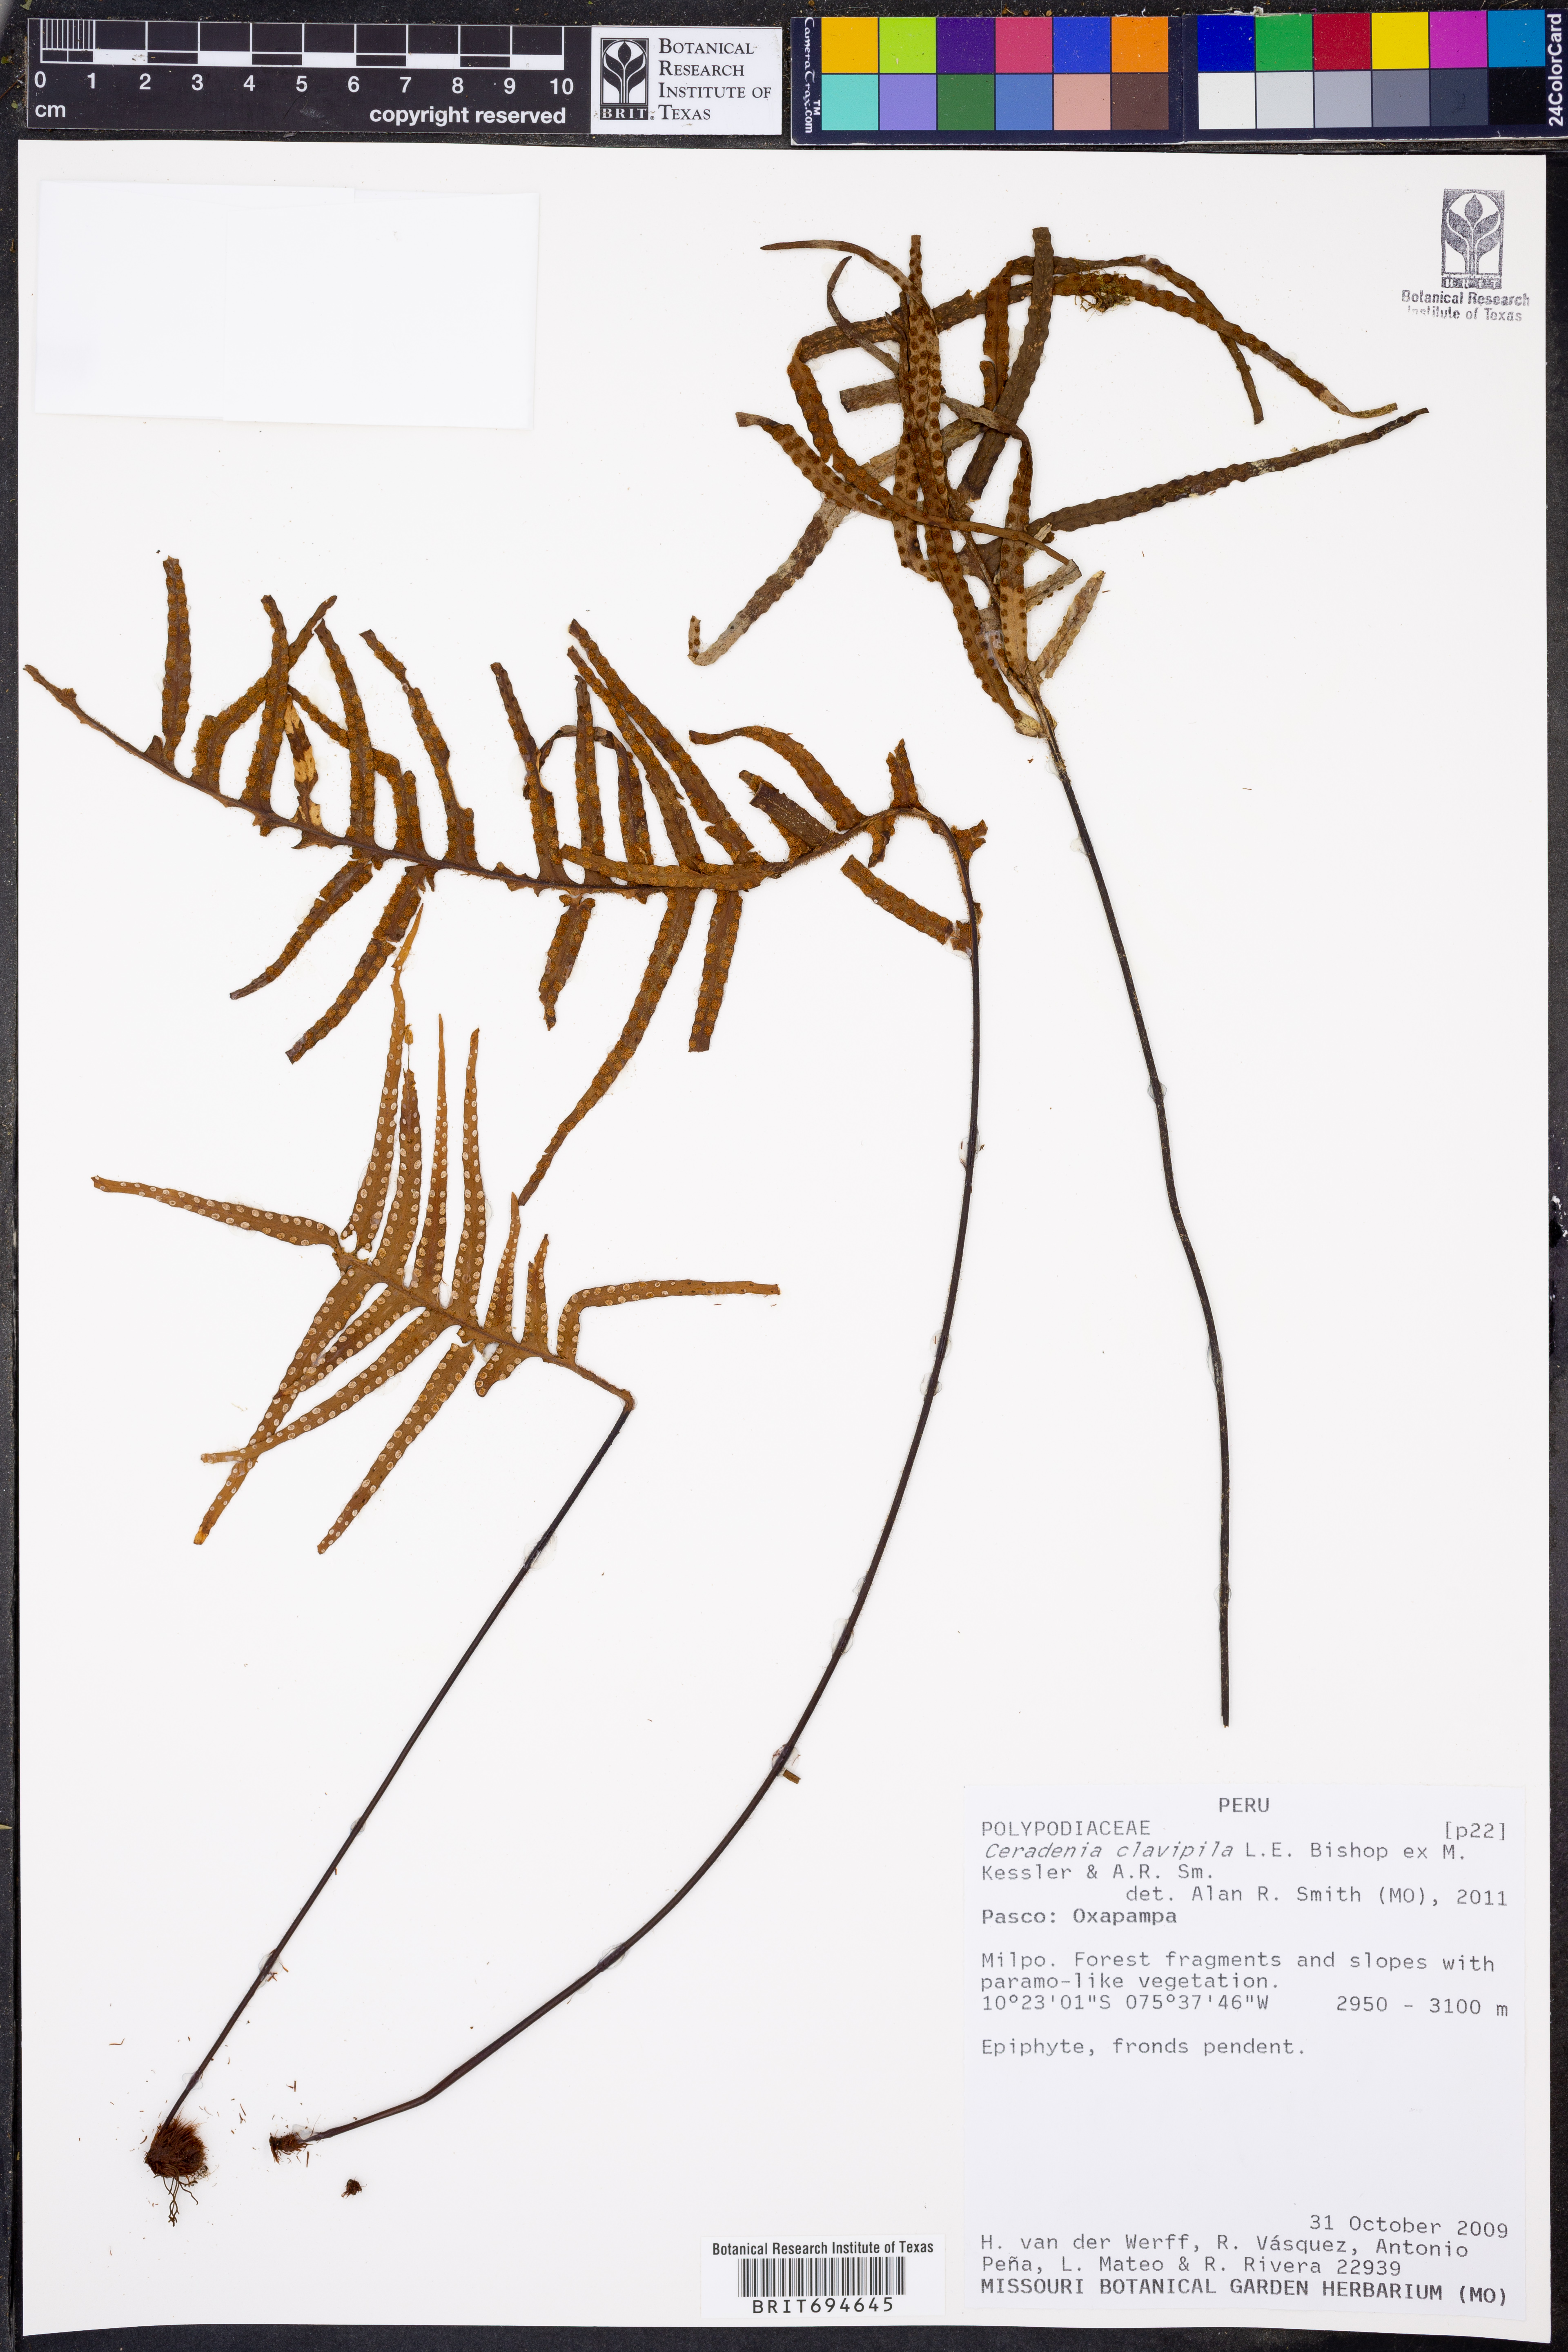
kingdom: Plantae
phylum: Tracheophyta
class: Polypodiopsida
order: Polypodiales
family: Polypodiaceae
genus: Ceradenia
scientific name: Ceradenia clavipila
